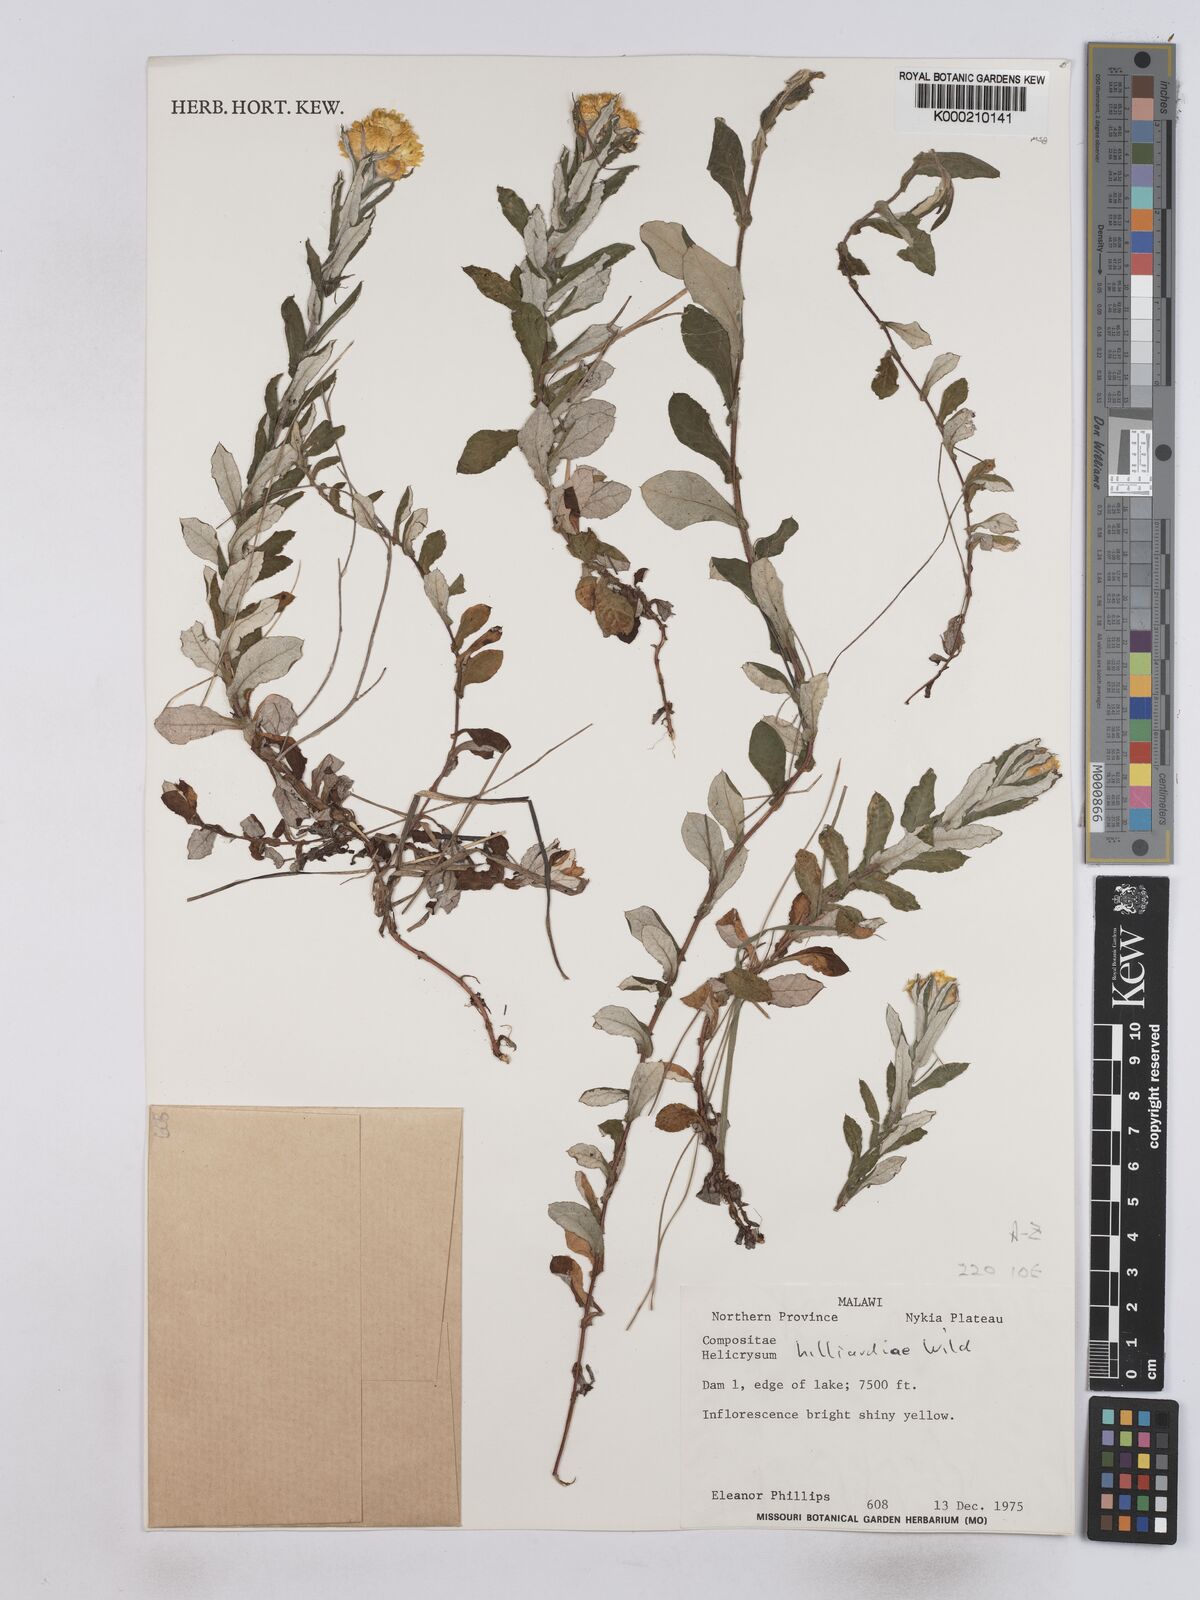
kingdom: Plantae
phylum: Tracheophyta
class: Magnoliopsida
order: Asterales
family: Asteraceae
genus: Helichrysum
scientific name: Helichrysum hilliardiae
